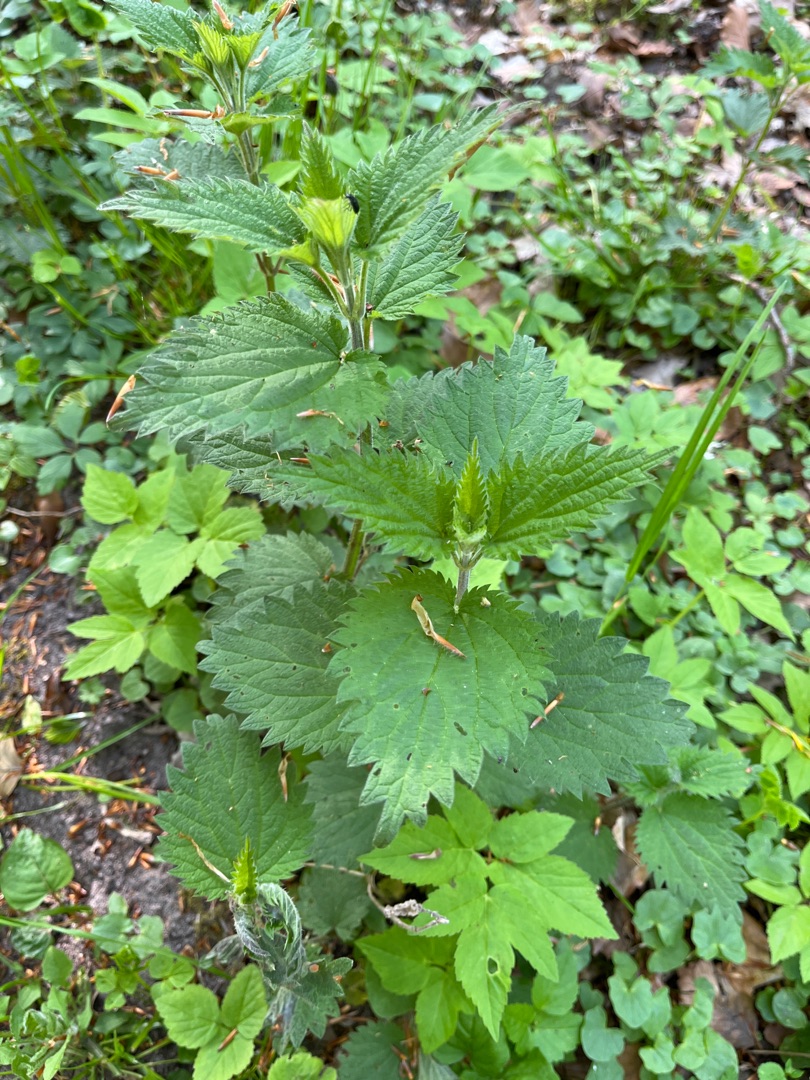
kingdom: Plantae
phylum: Tracheophyta
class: Magnoliopsida
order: Rosales
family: Urticaceae
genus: Urtica
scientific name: Urtica dioica
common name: Stor nælde
